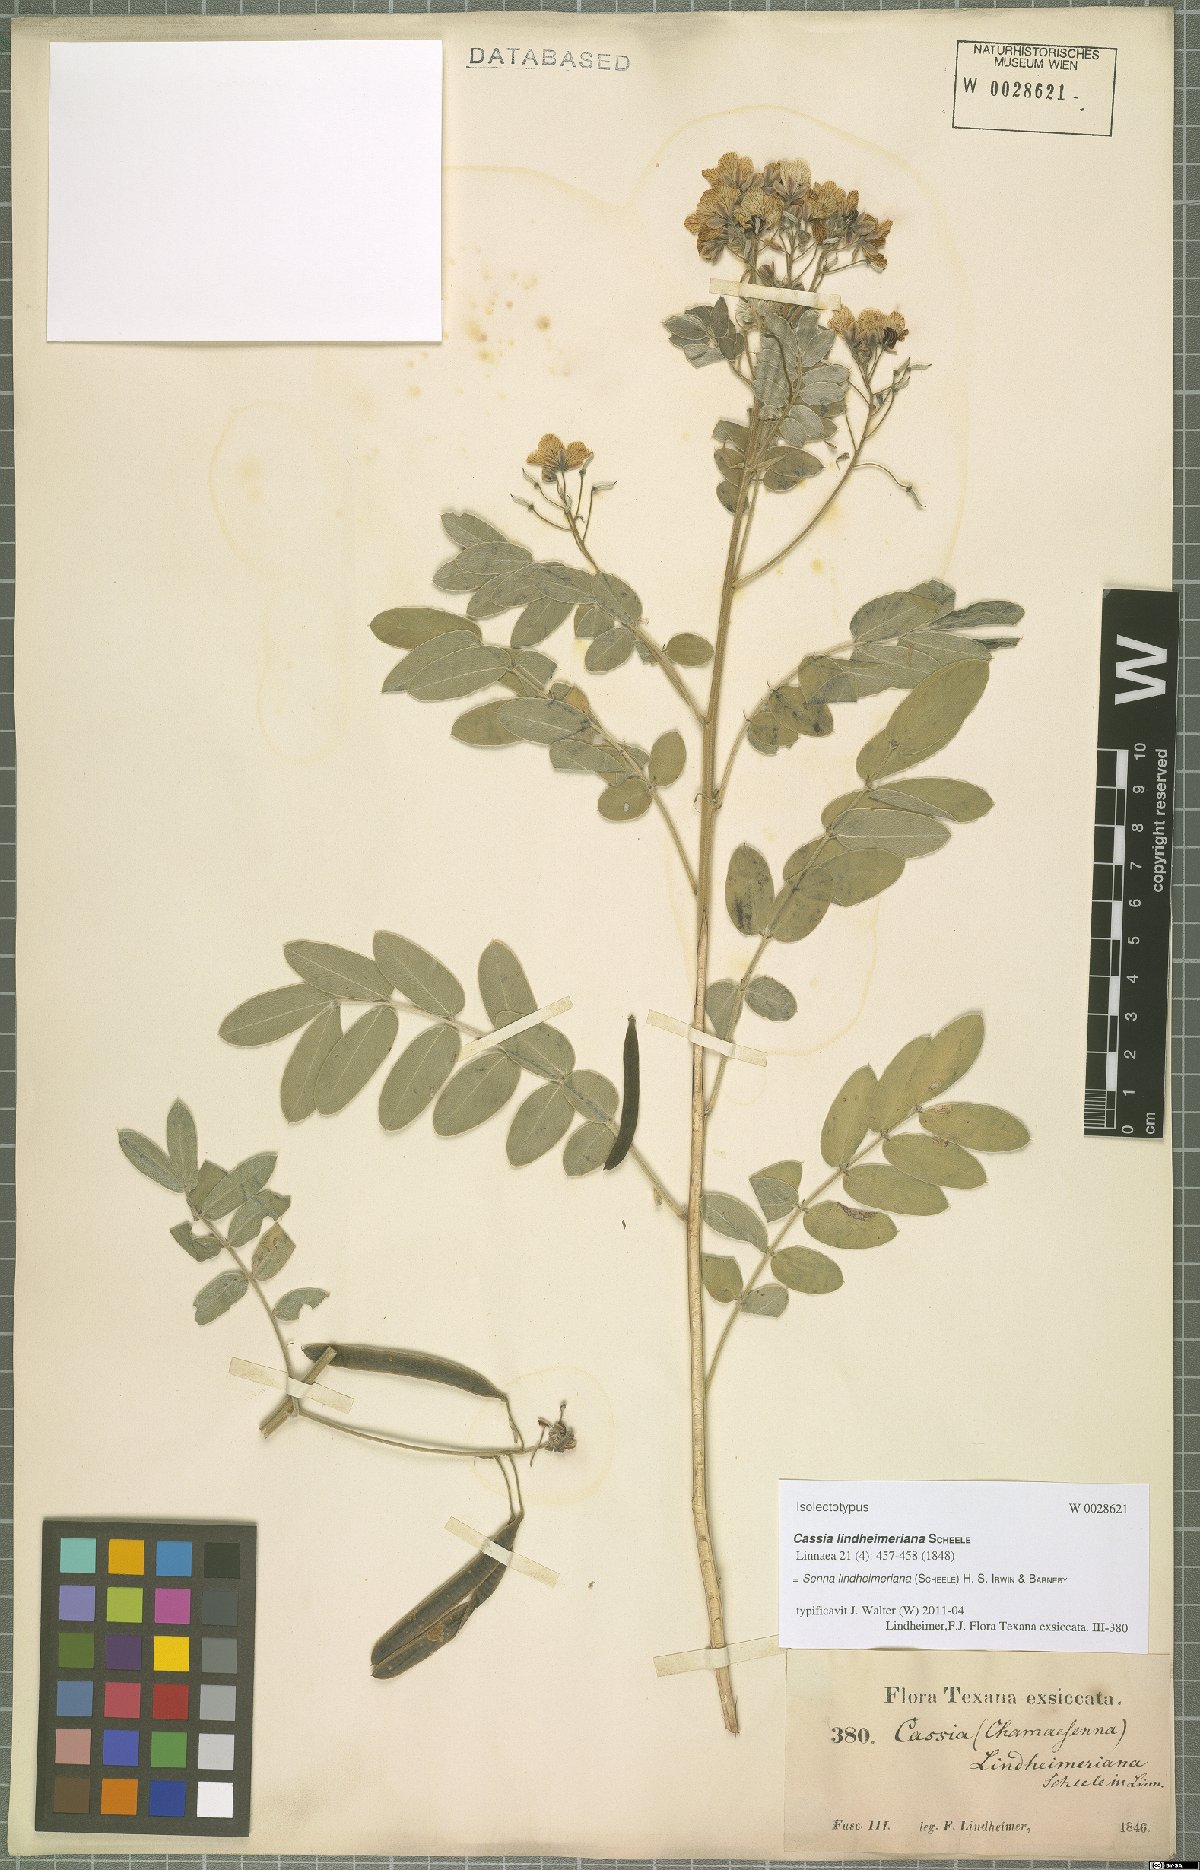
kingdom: Plantae
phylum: Tracheophyta
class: Magnoliopsida
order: Fabales
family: Fabaceae
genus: Senna
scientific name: Senna lindheimeriana
